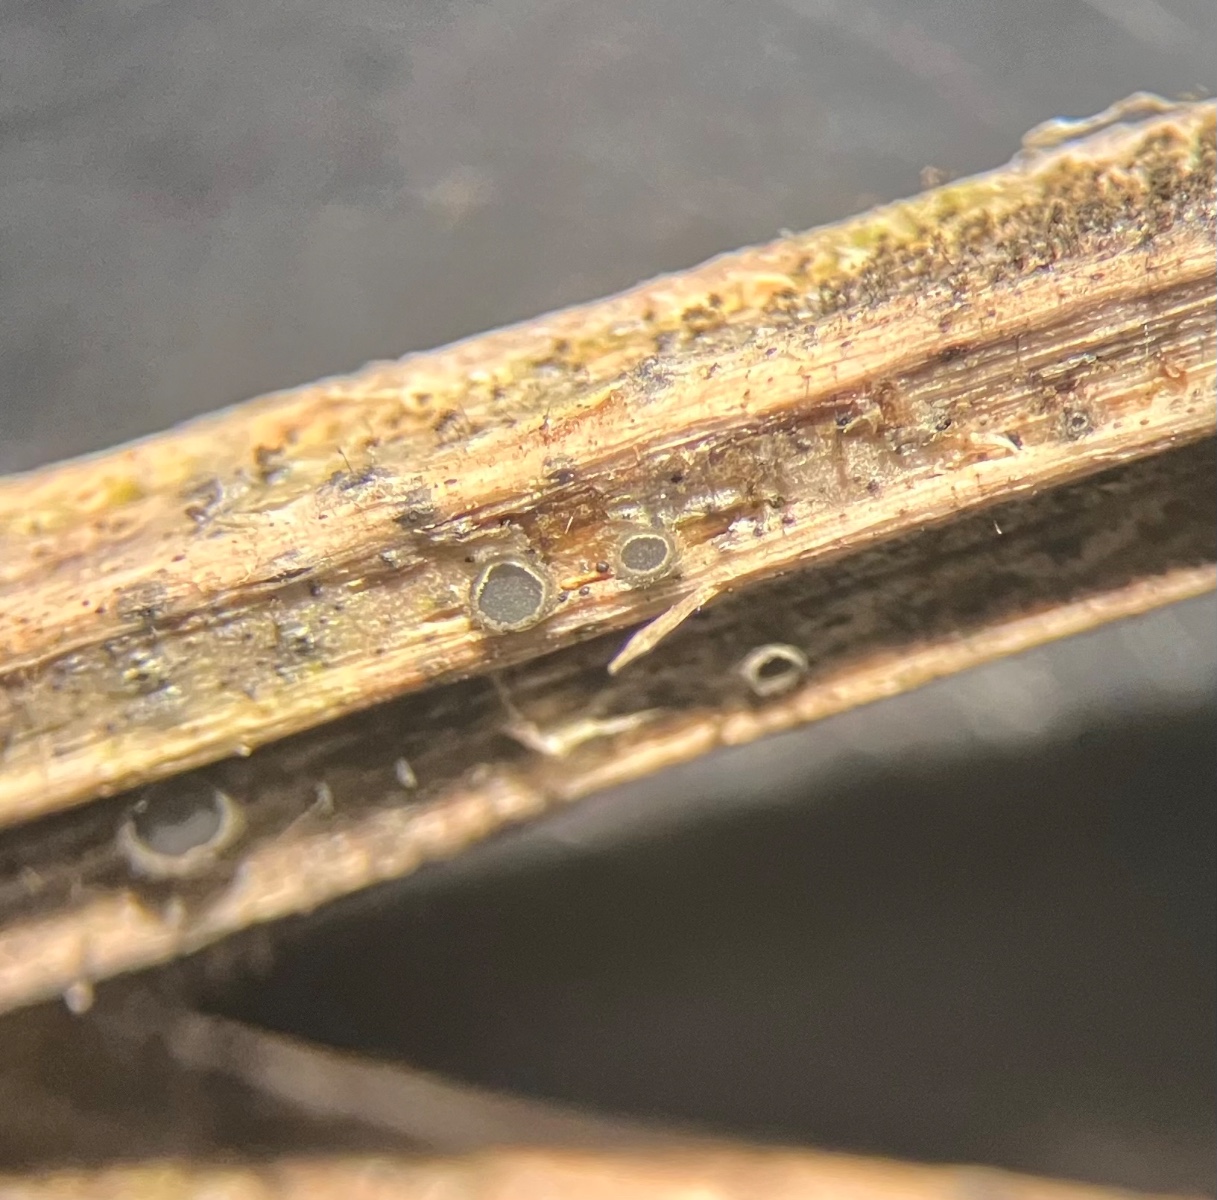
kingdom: Fungi
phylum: Ascomycota
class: Leotiomycetes
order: Helotiales
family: Ploettnerulaceae
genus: Pyrenopeziza
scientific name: Pyrenopeziza
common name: kerneskive
